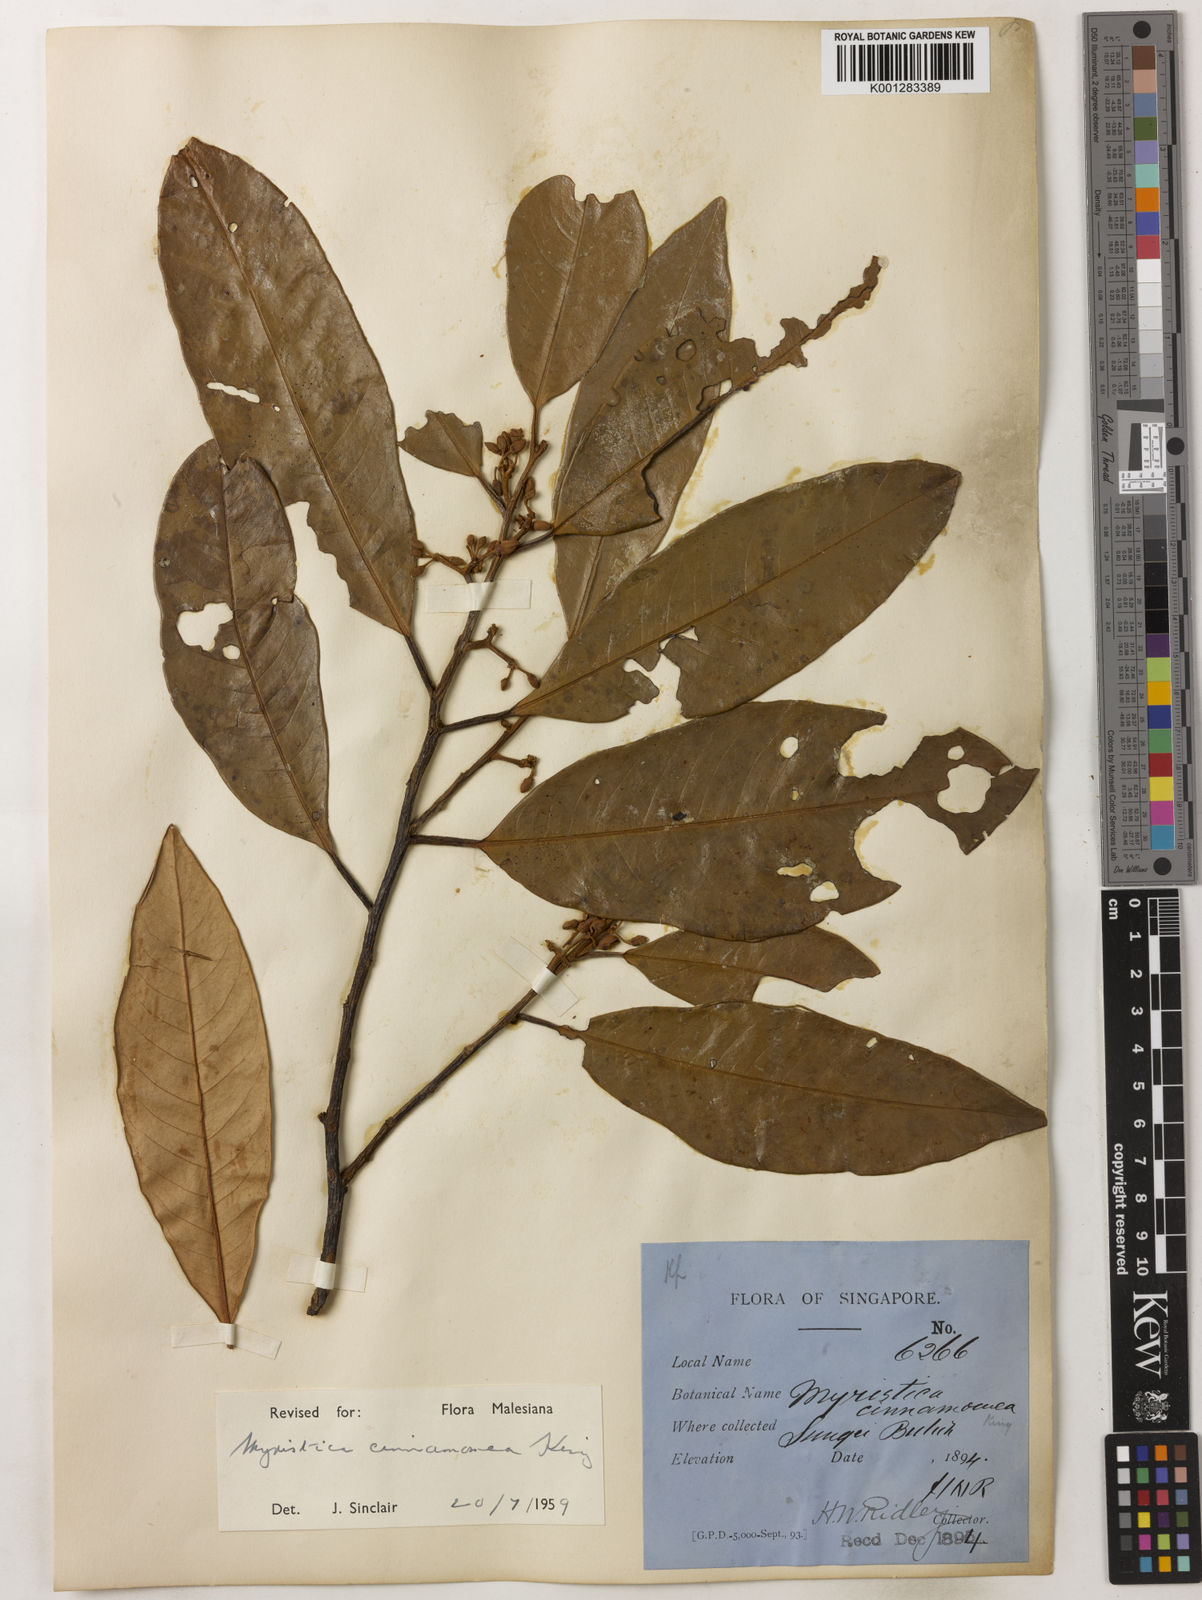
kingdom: Plantae
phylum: Tracheophyta
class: Magnoliopsida
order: Magnoliales
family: Myristicaceae
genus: Myristica
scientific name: Myristica cinnamomea
